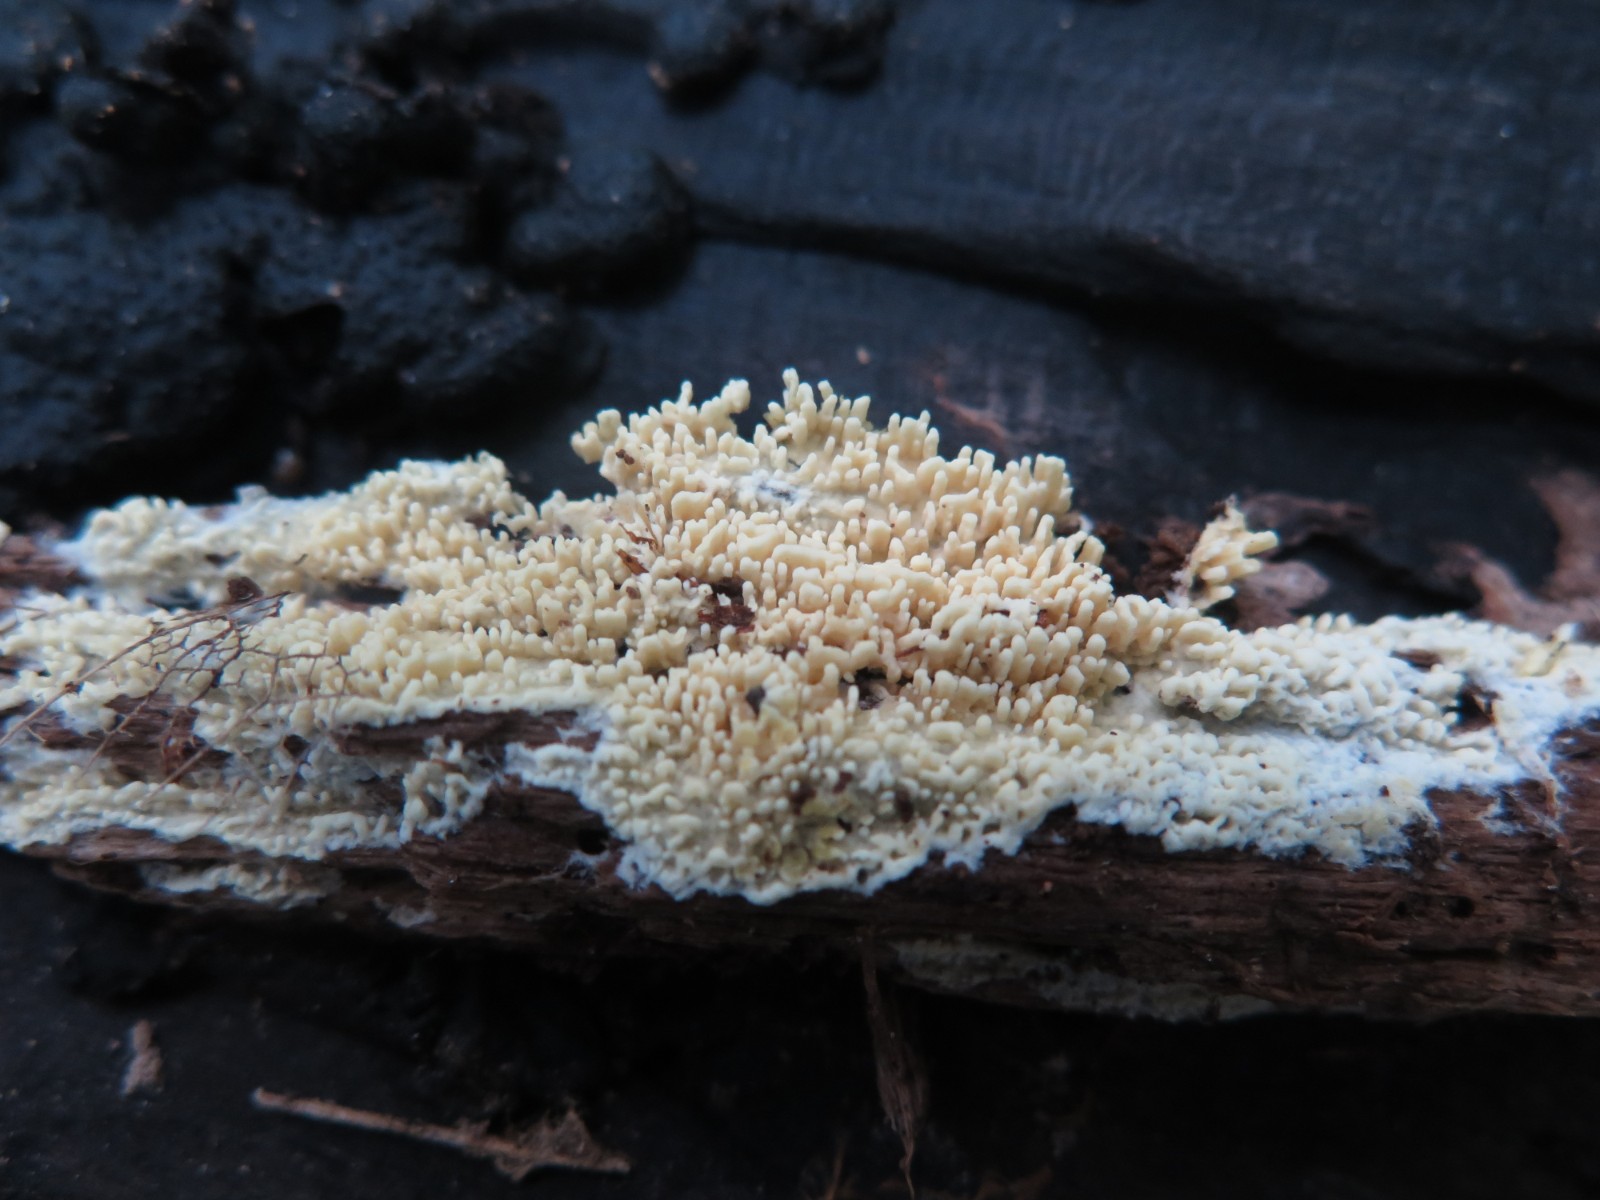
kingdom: Fungi
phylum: Basidiomycota
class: Agaricomycetes
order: Corticiales
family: Corticiaceae
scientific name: Corticiaceae
